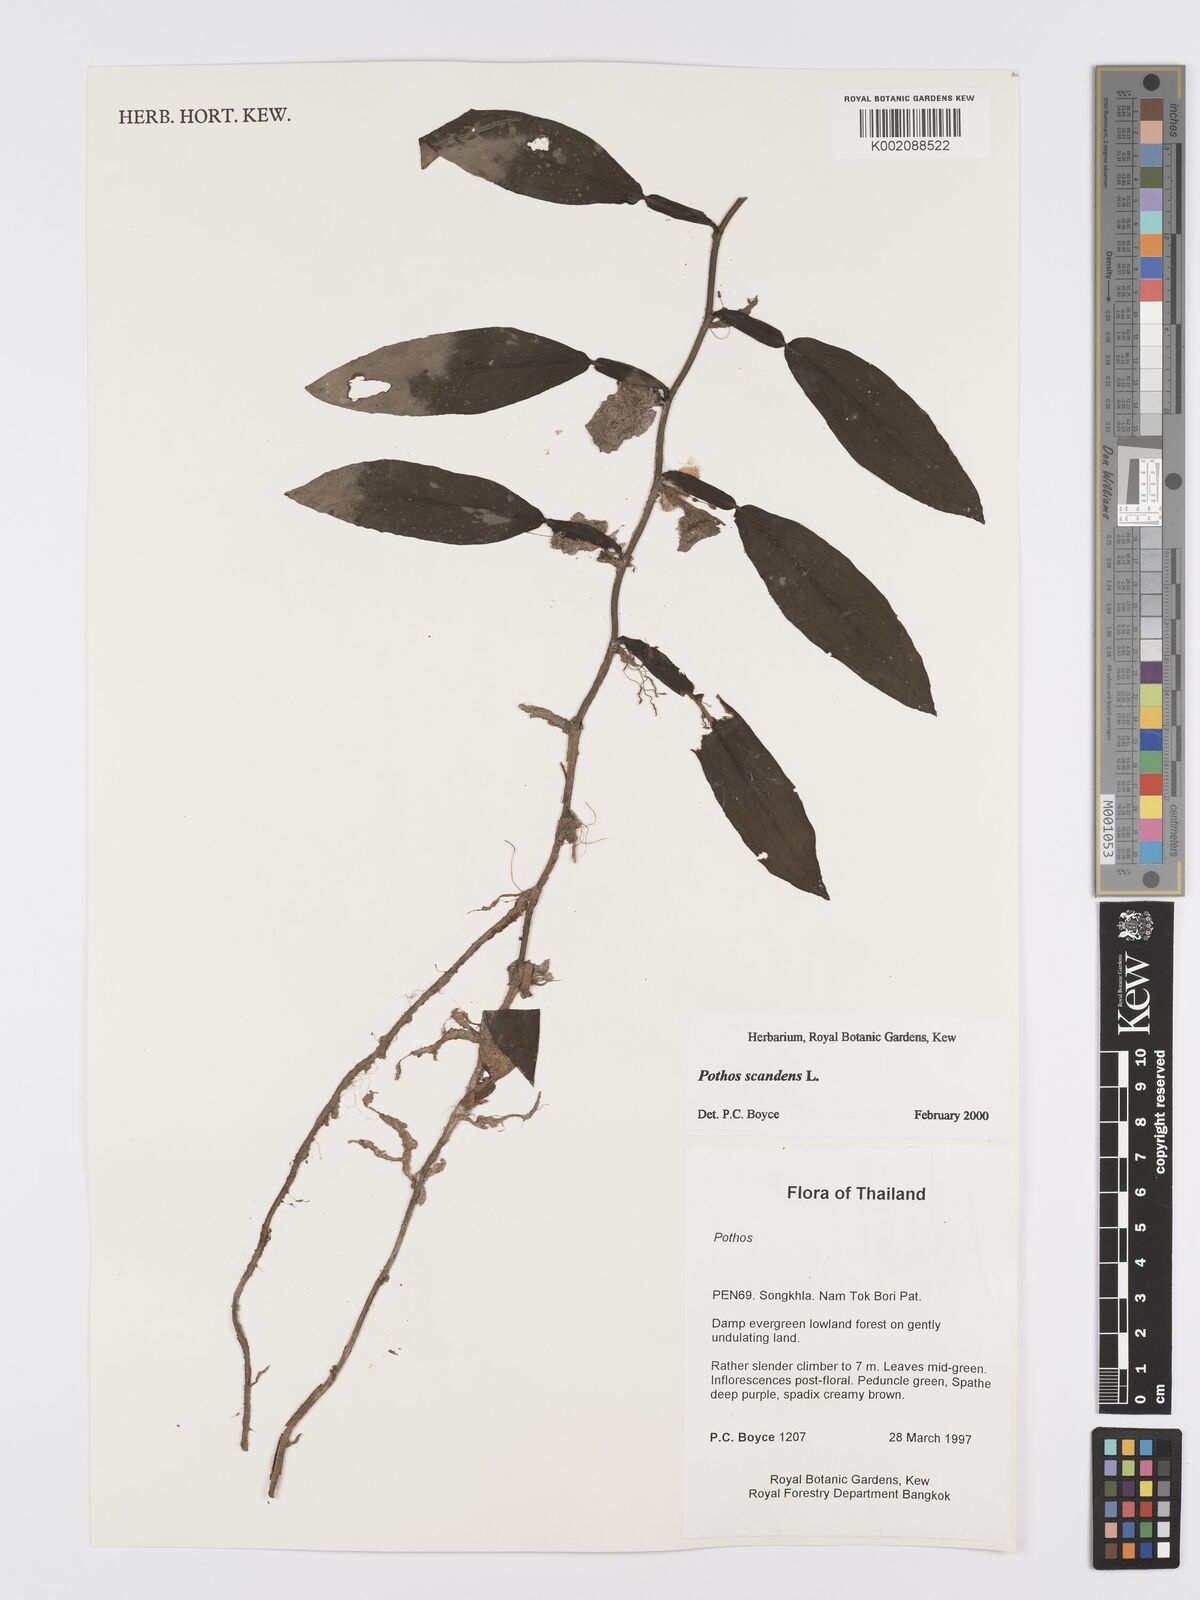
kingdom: Plantae
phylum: Tracheophyta
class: Liliopsida
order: Alismatales
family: Araceae
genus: Pothos
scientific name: Pothos scandens
